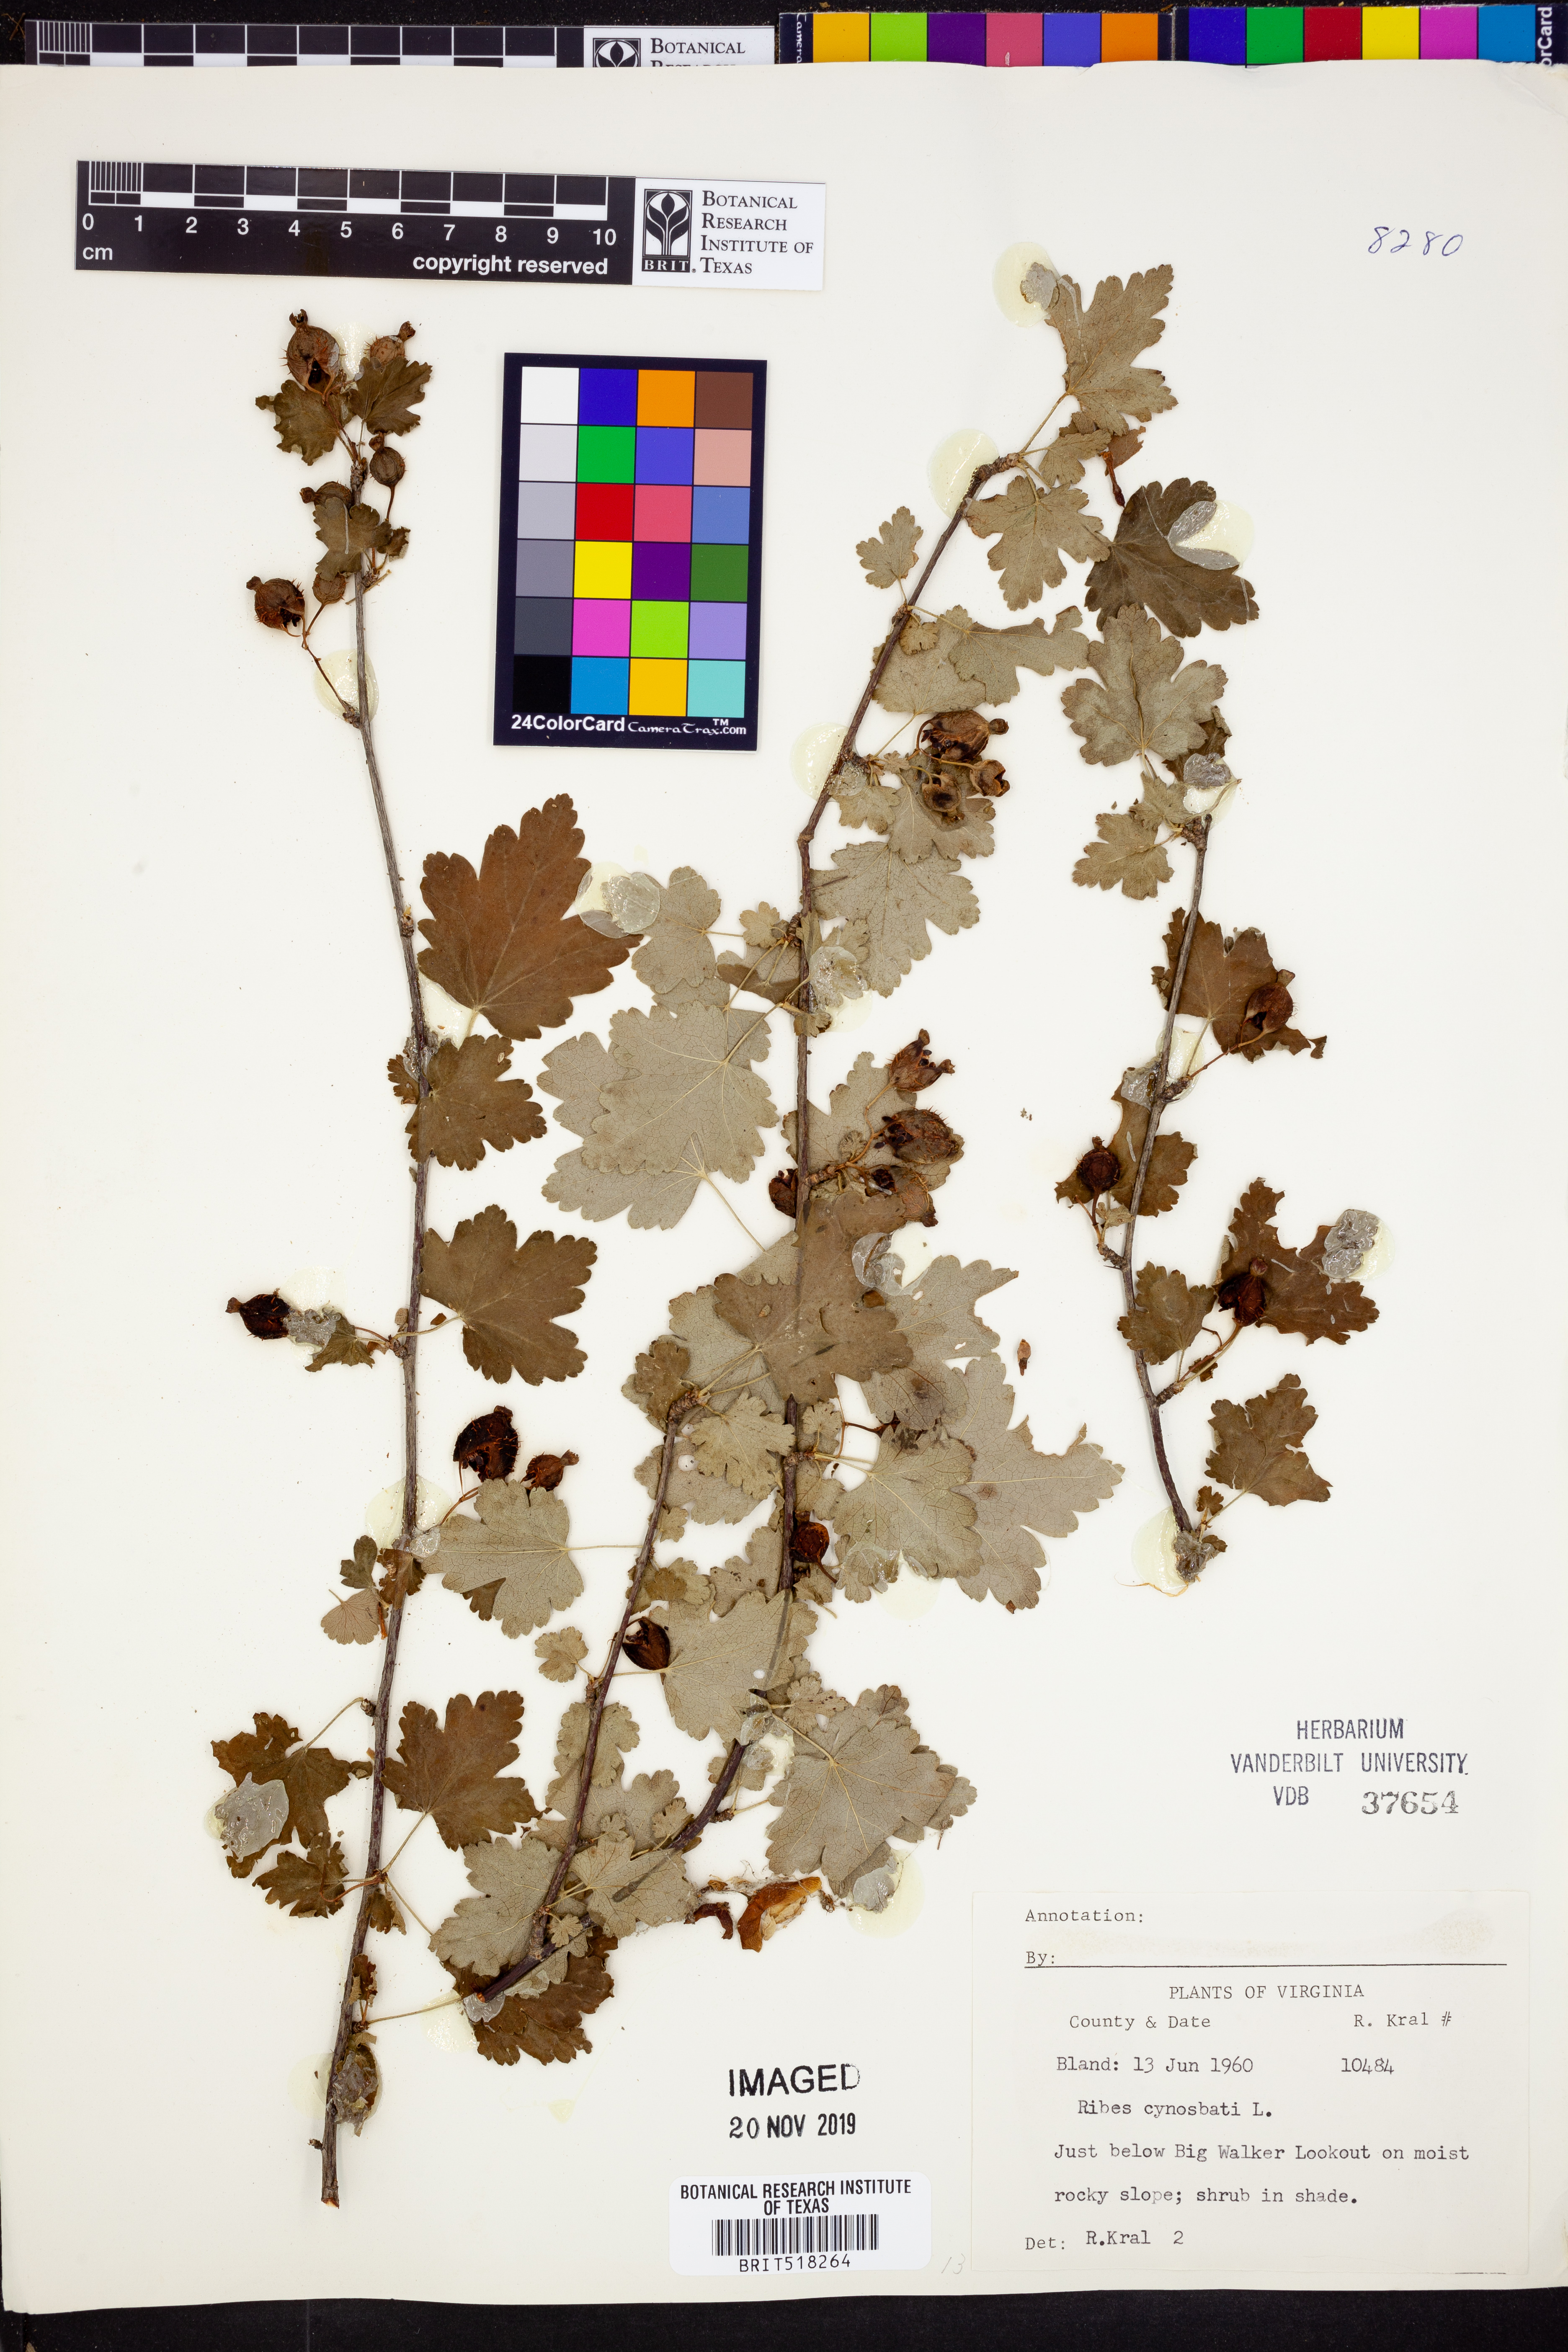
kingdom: Plantae
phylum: Tracheophyta
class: Magnoliopsida
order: Saxifragales
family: Grossulariaceae
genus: Ribes
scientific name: Ribes cynosbati
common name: American gooseberry
